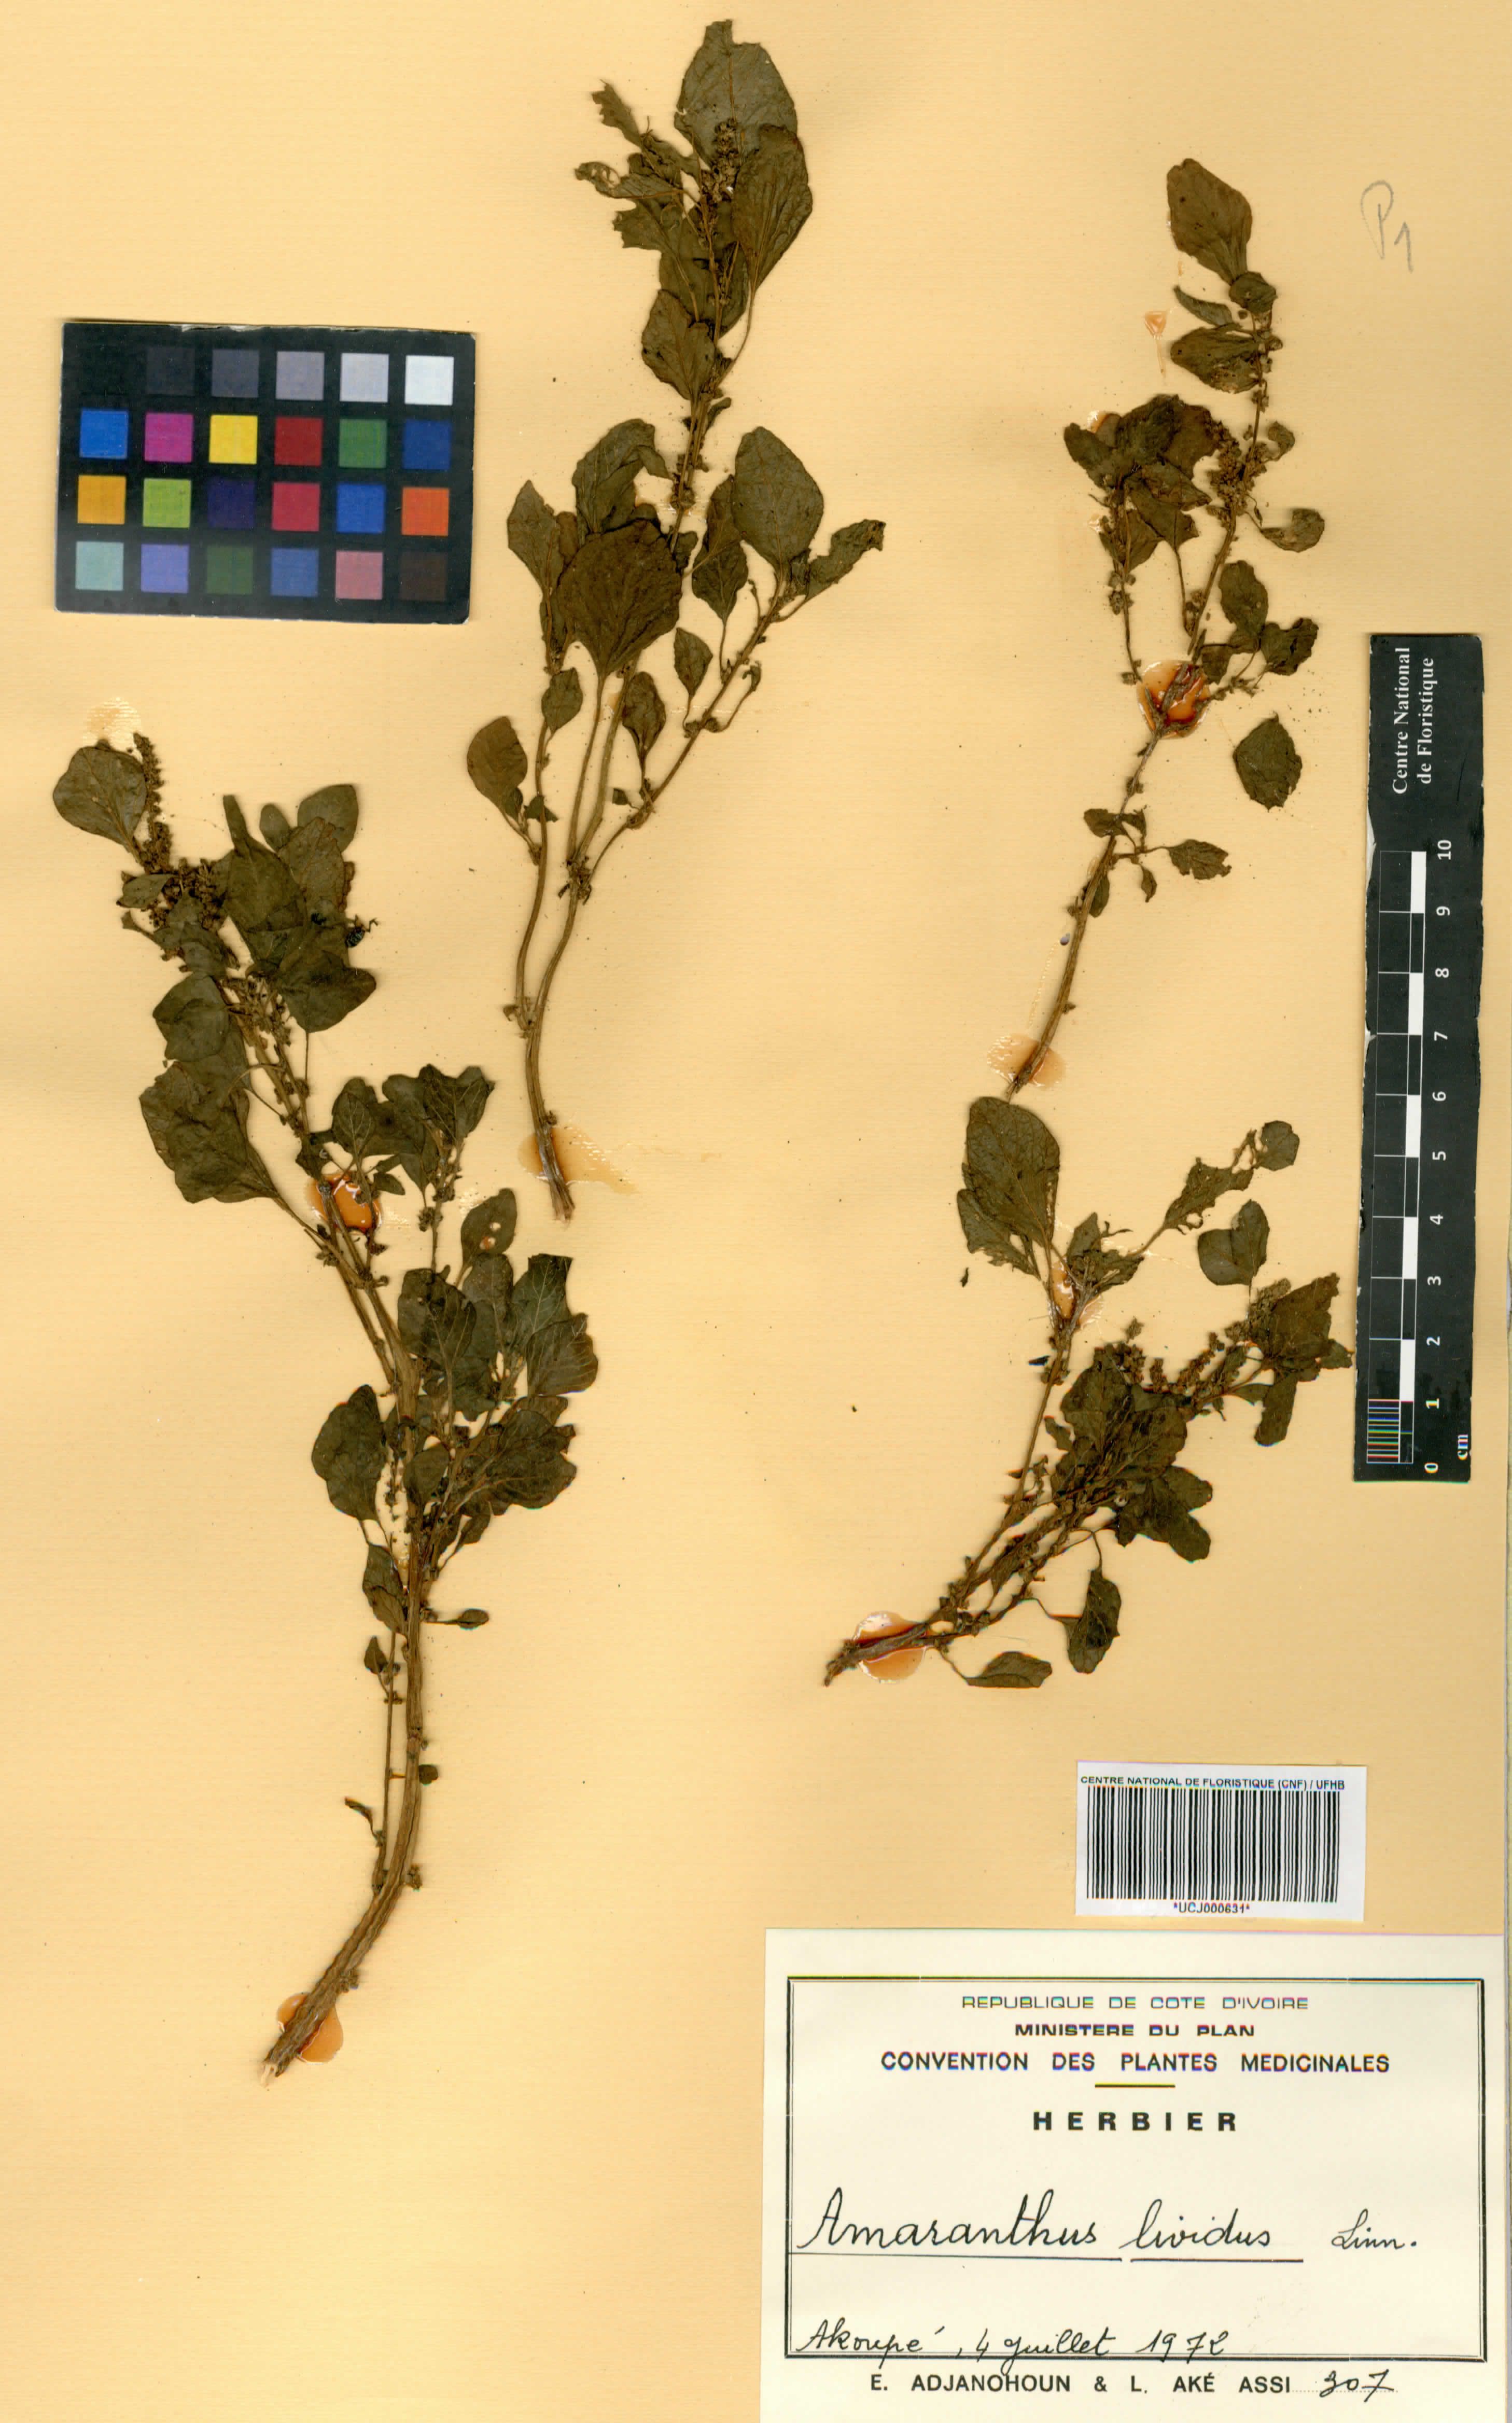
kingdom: Plantae
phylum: Tracheophyta
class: Magnoliopsida
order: Caryophyllales
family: Amaranthaceae
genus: Amaranthus
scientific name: Amaranthus
